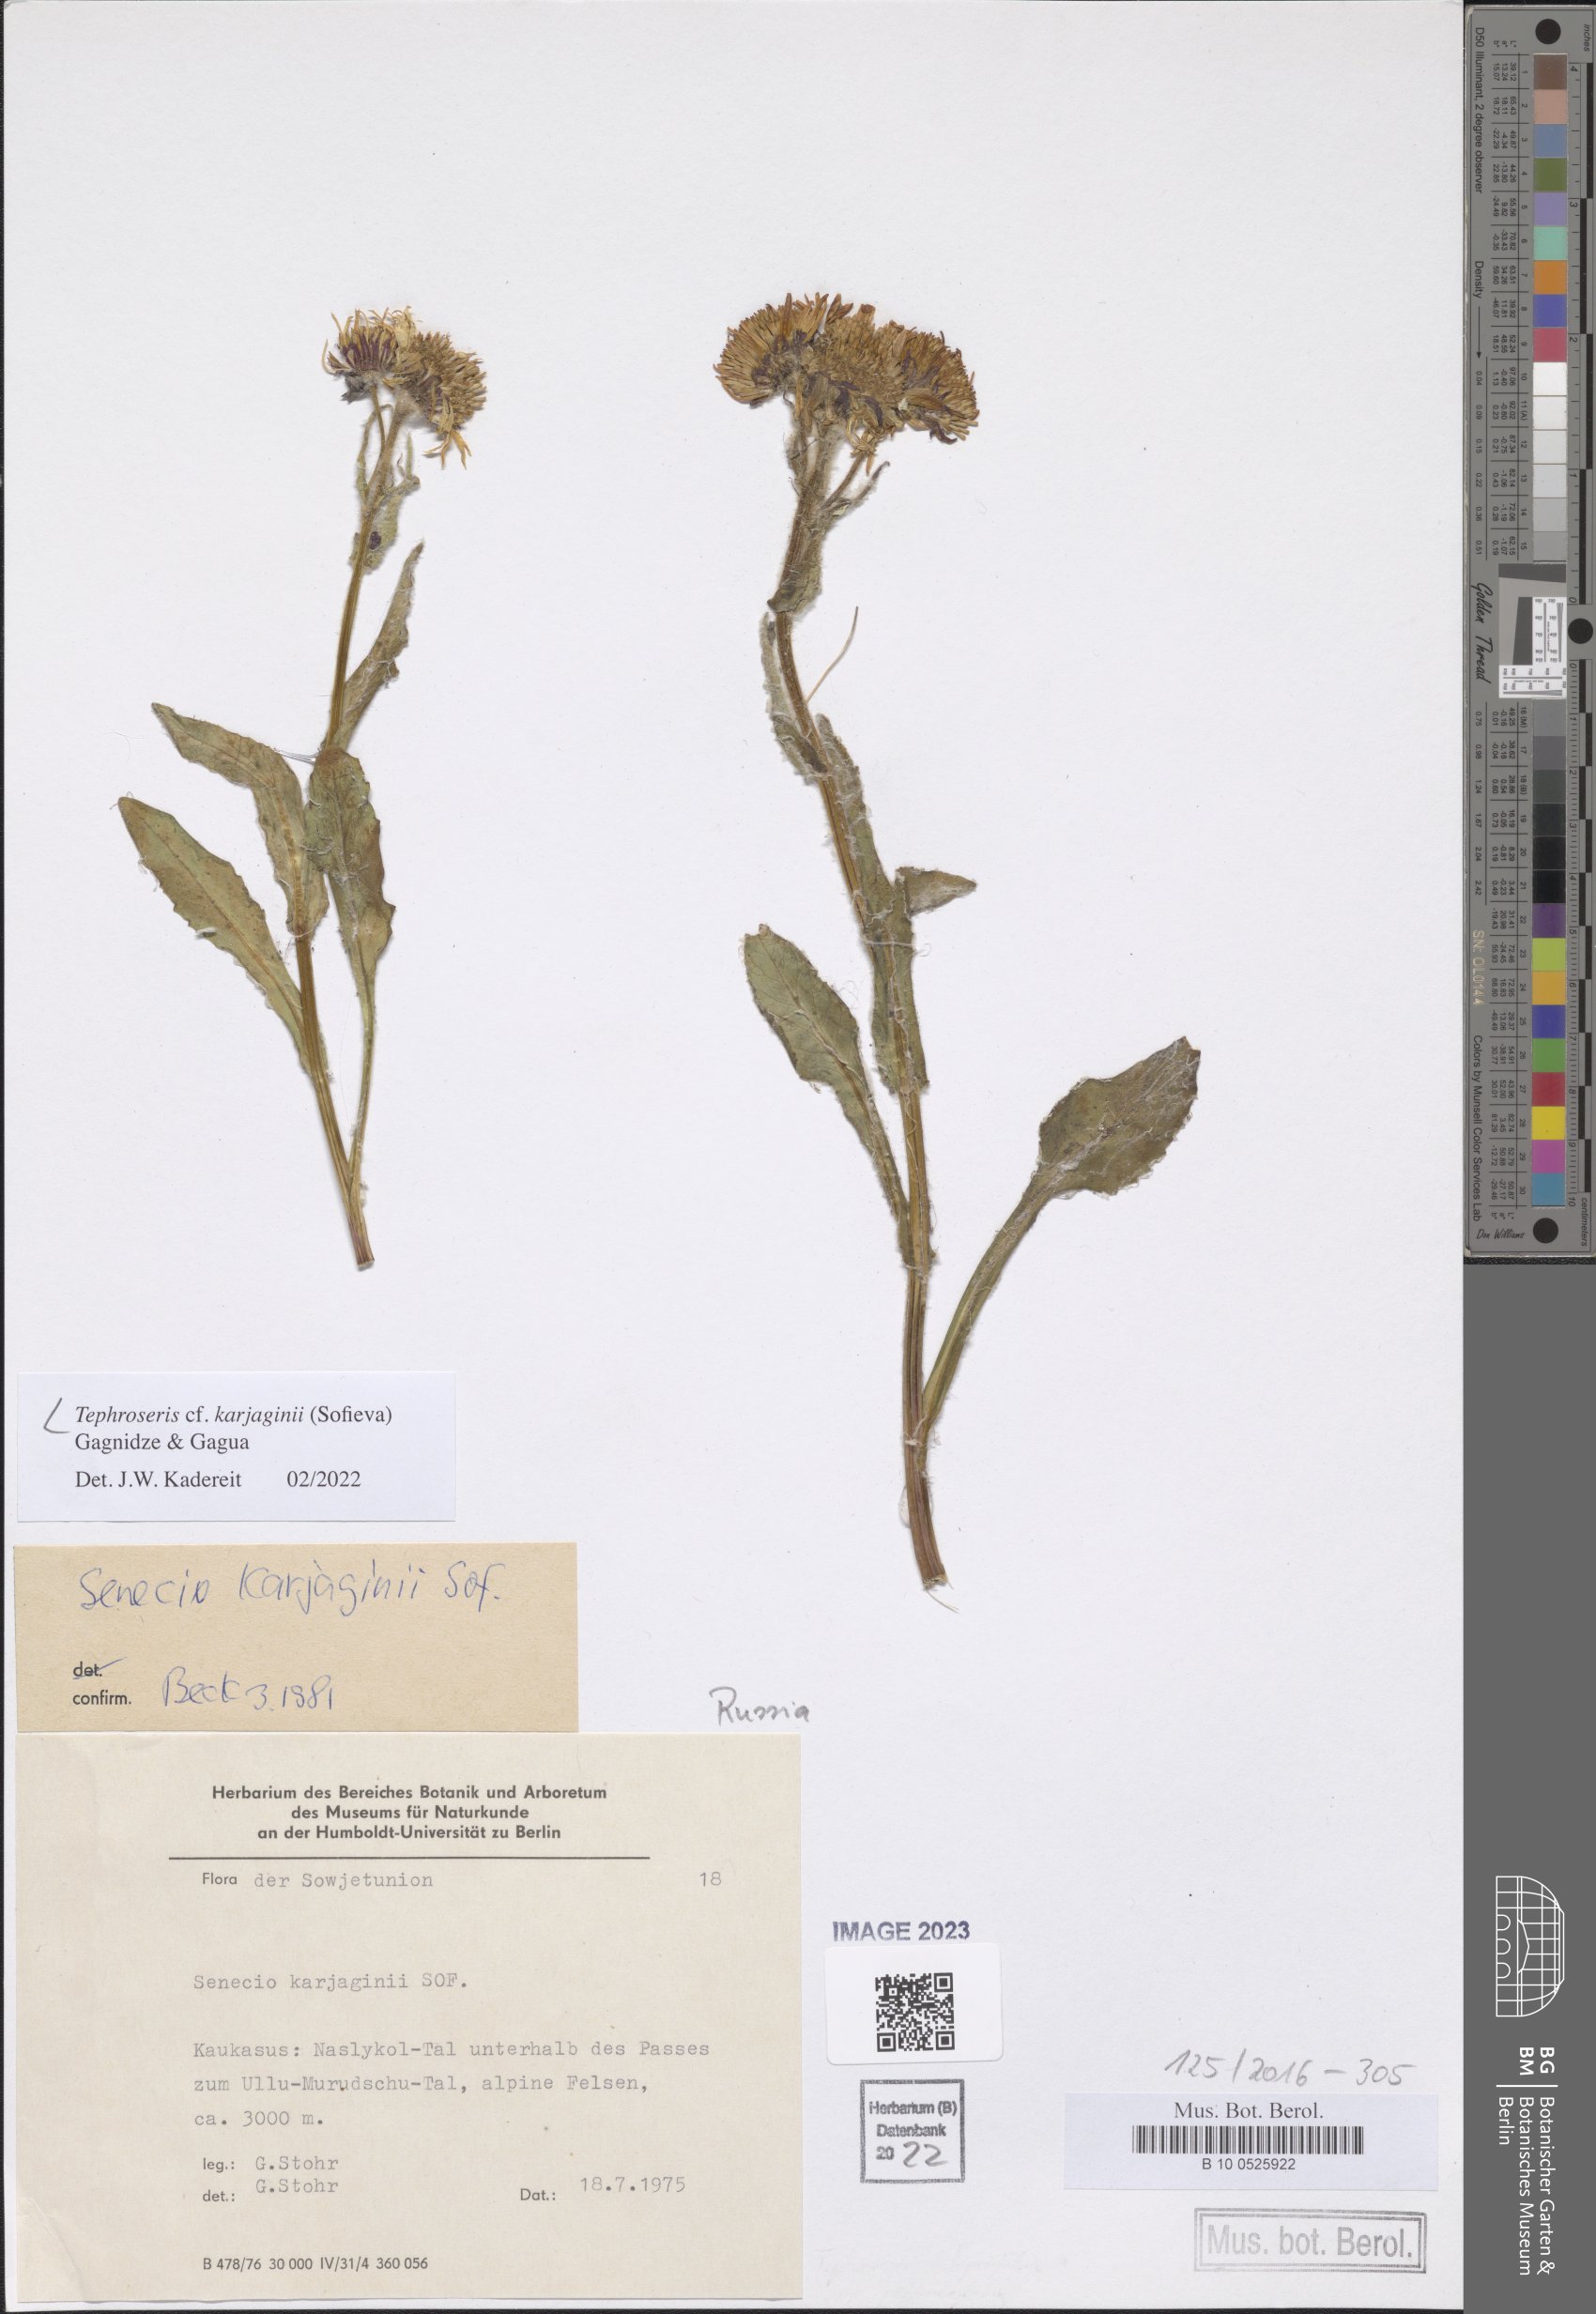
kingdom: Plantae
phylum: Tracheophyta
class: Magnoliopsida
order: Asterales
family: Asteraceae
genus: Tephroseris
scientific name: Tephroseris integrifolia
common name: Field fleawort
